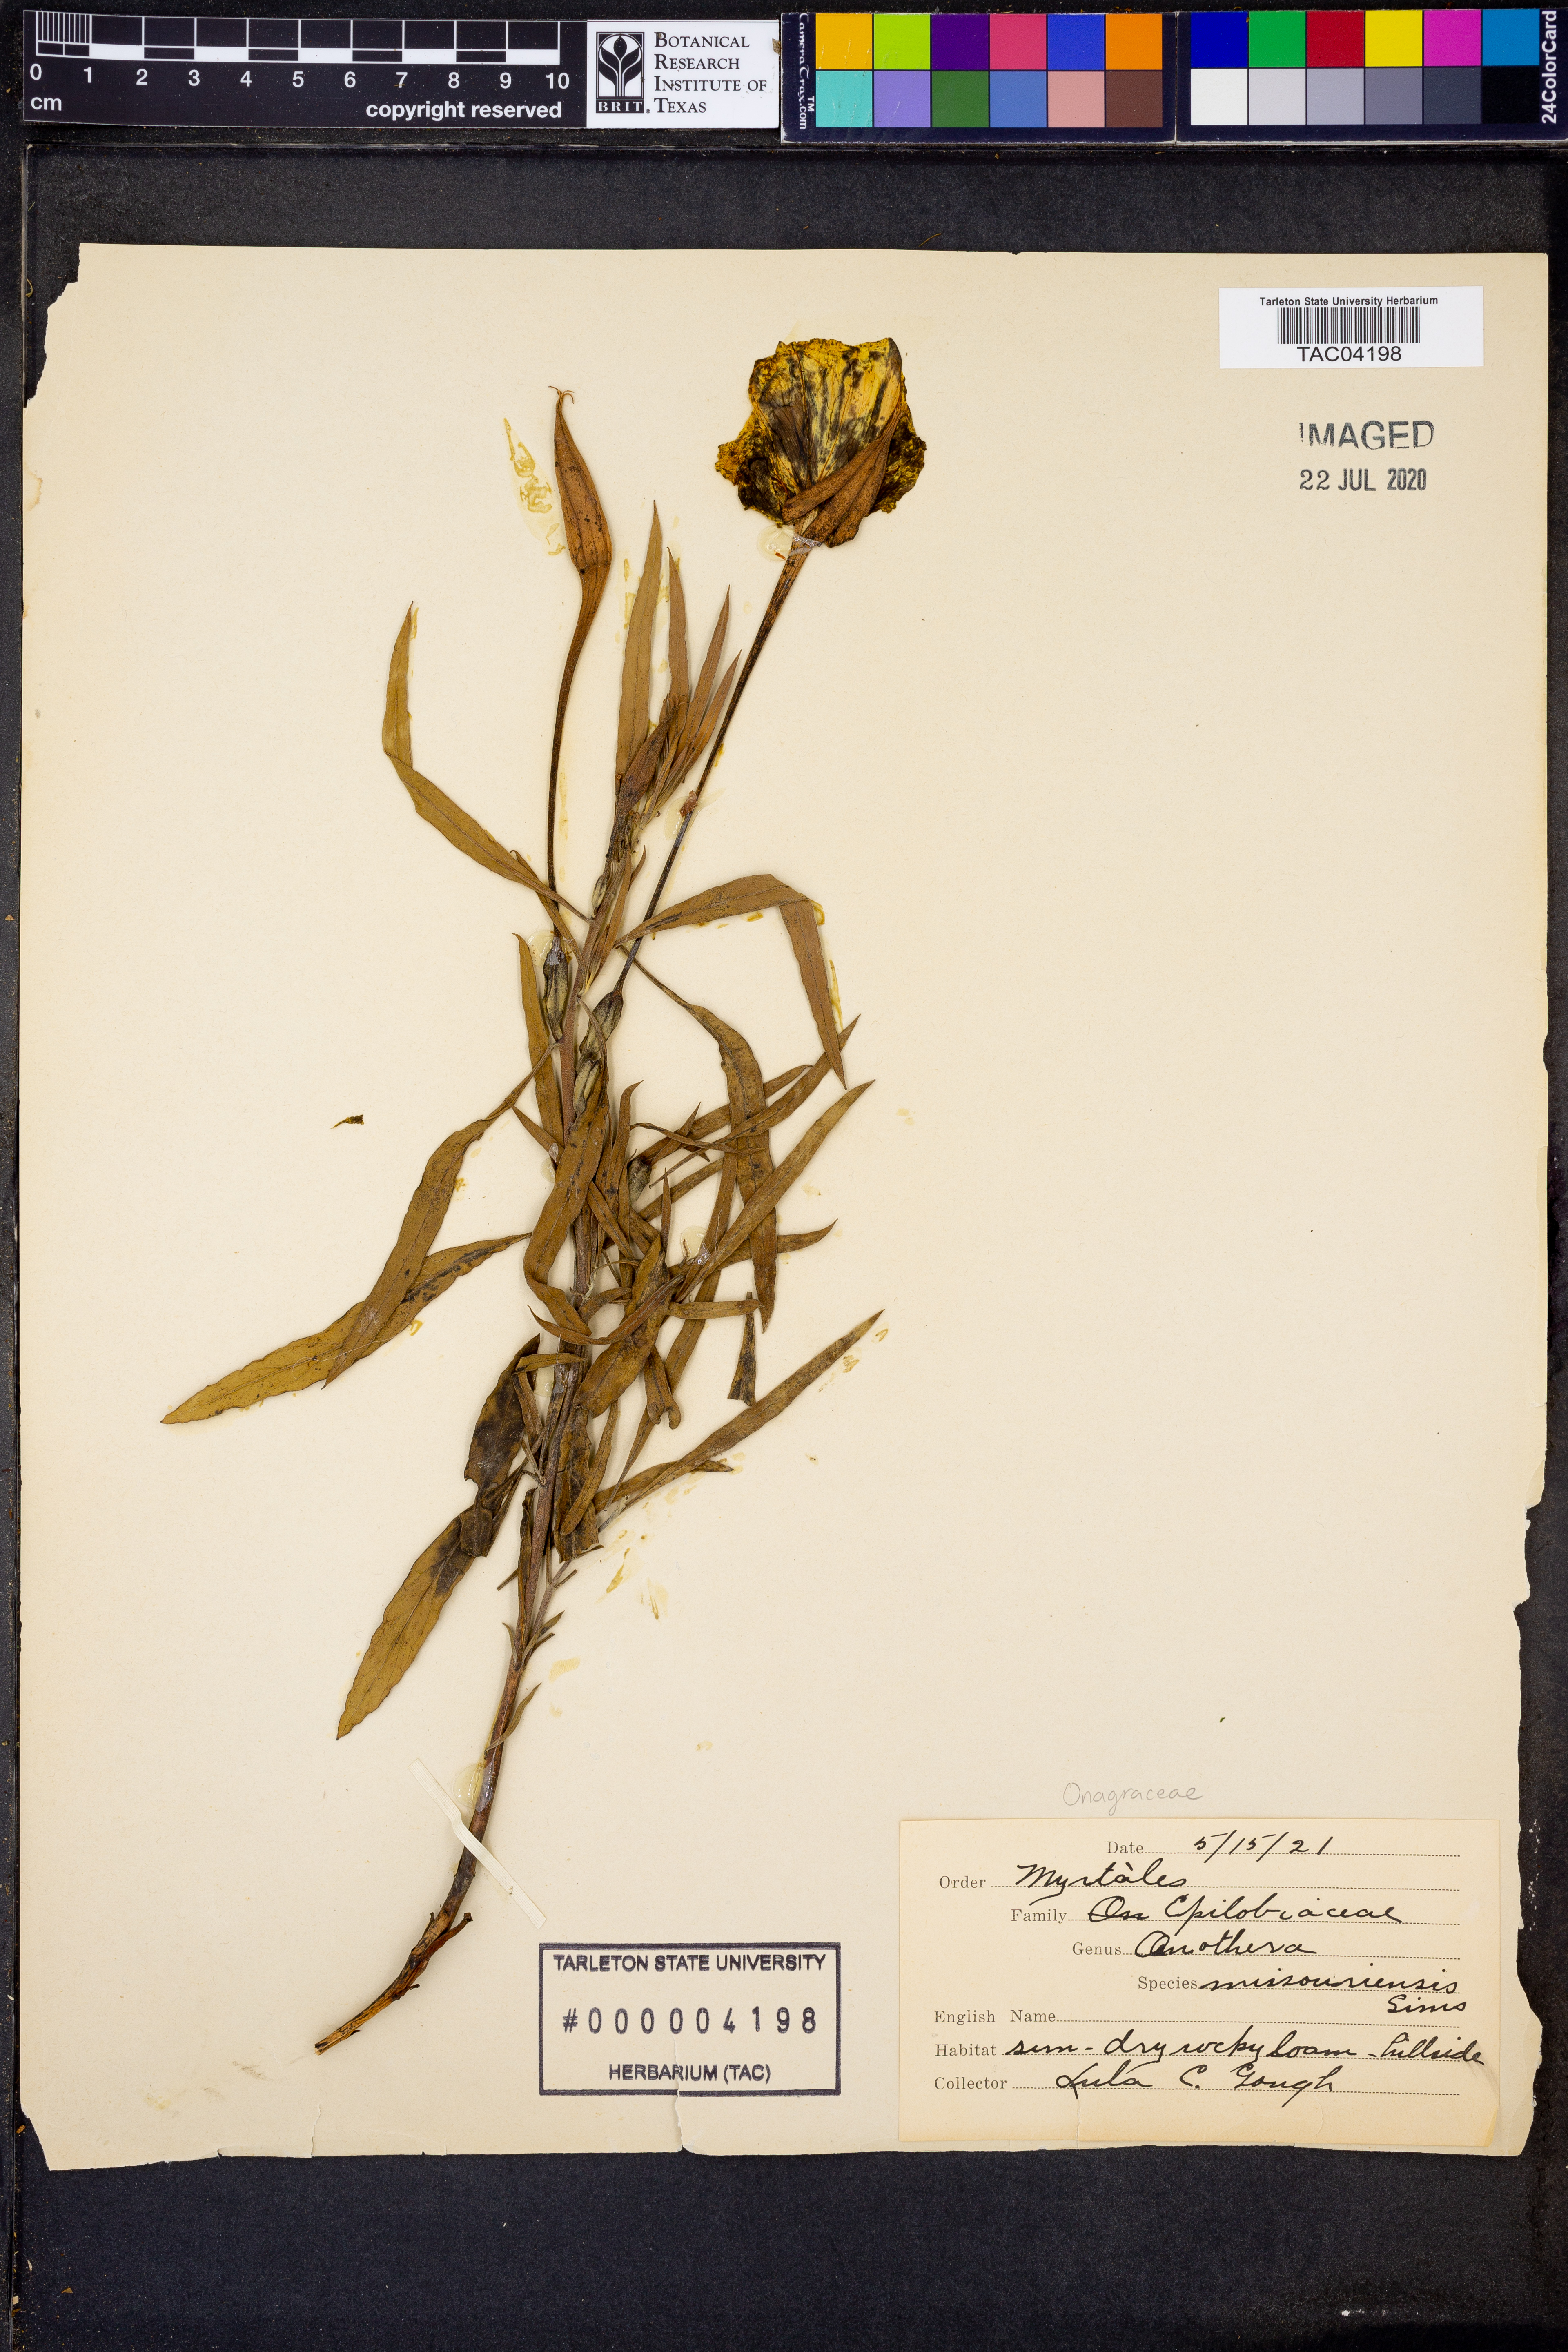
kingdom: Plantae
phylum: Tracheophyta
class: Magnoliopsida
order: Myrtales
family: Onagraceae
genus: Oenothera
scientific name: Oenothera macrocarpa
